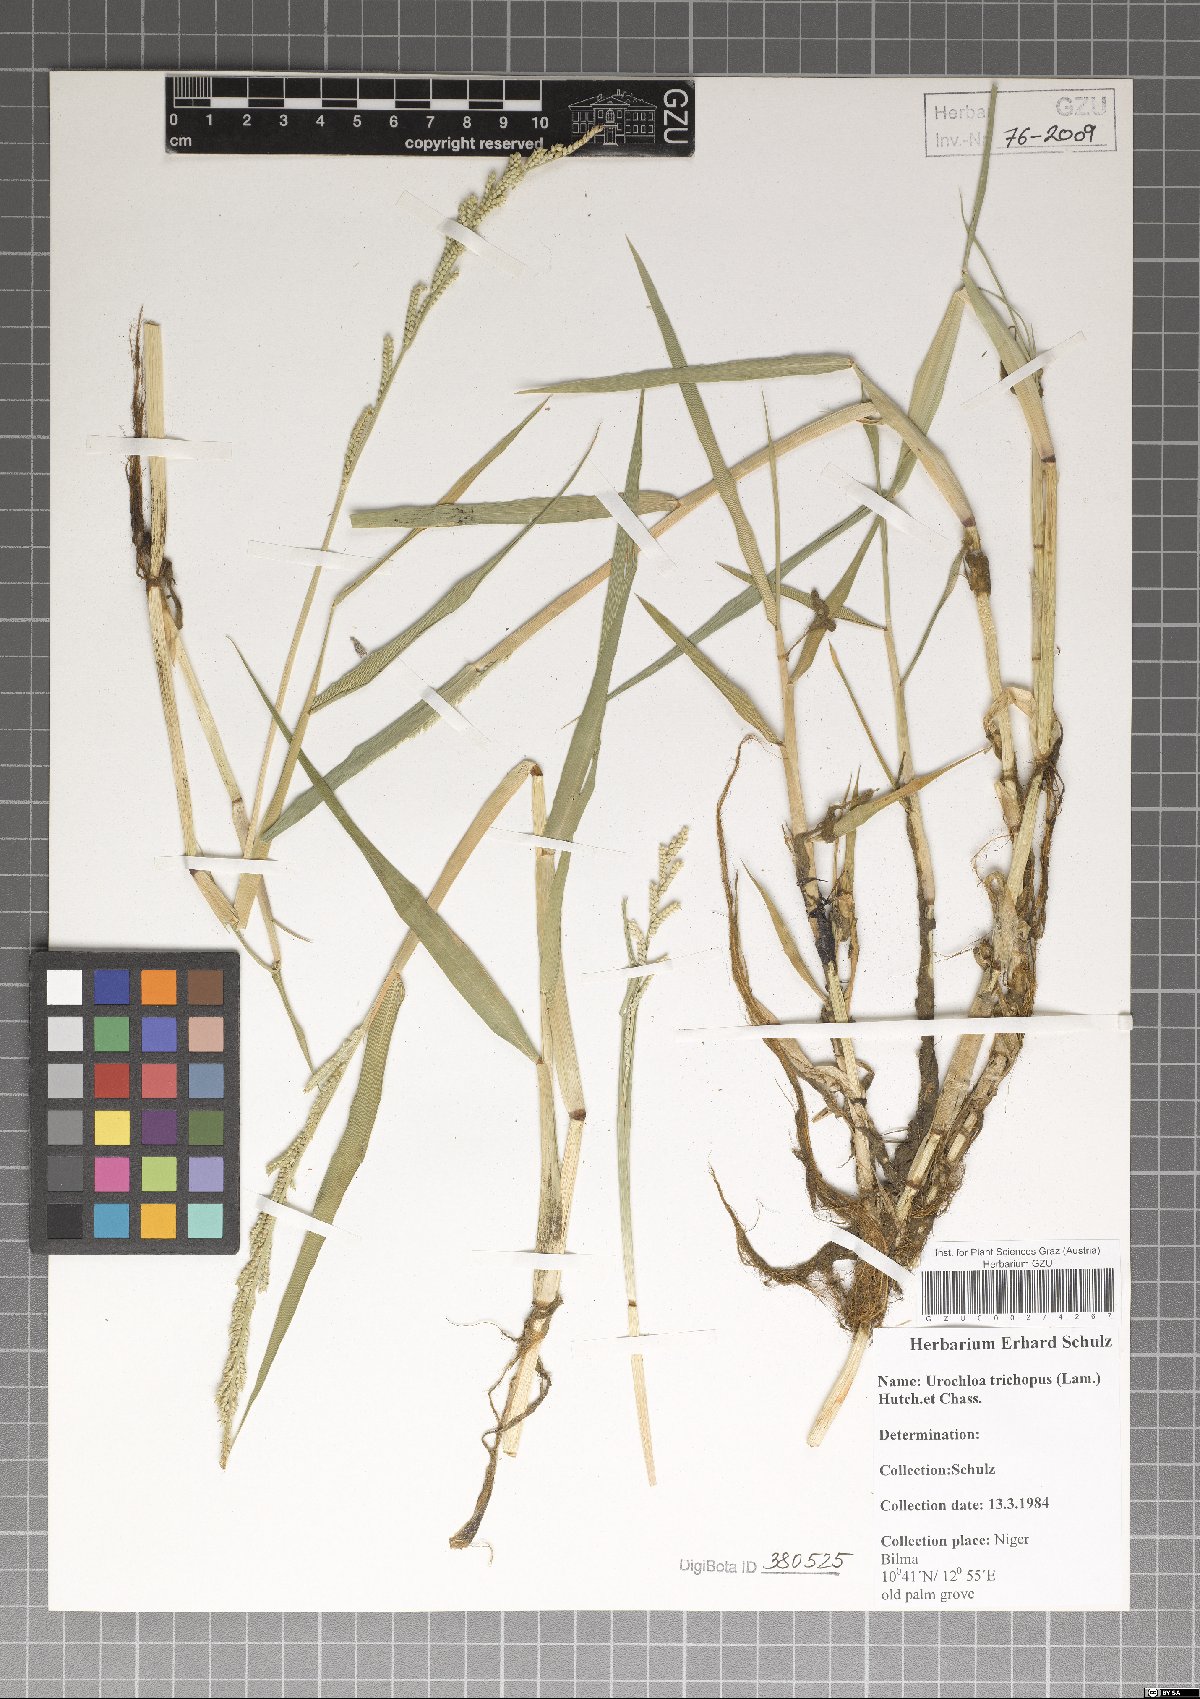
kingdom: Plantae
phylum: Tracheophyta
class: Liliopsida
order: Poales
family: Poaceae
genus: Urochloa
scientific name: Urochloa trichopus
